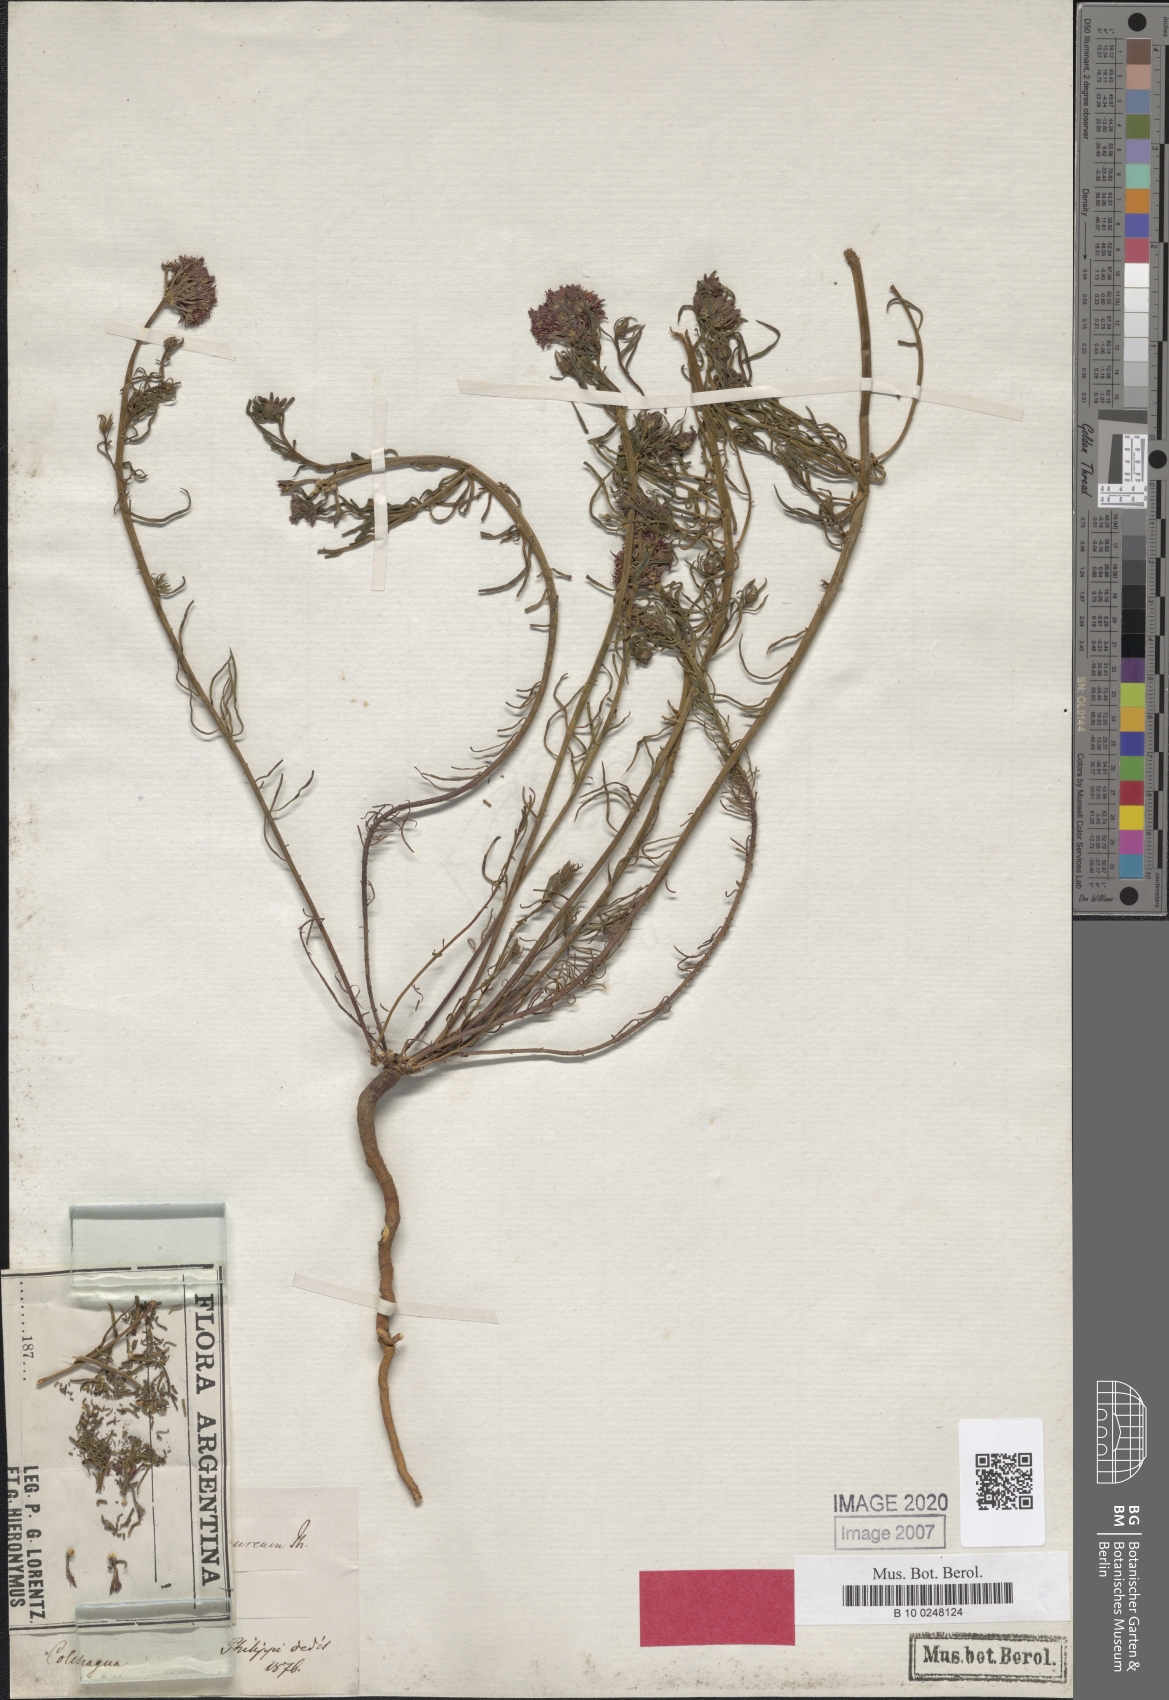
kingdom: Plantae
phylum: Tracheophyta
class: Magnoliopsida
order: Santalales
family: Schoepfiaceae
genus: Quinchamalium
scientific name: Quinchamalium chilense
